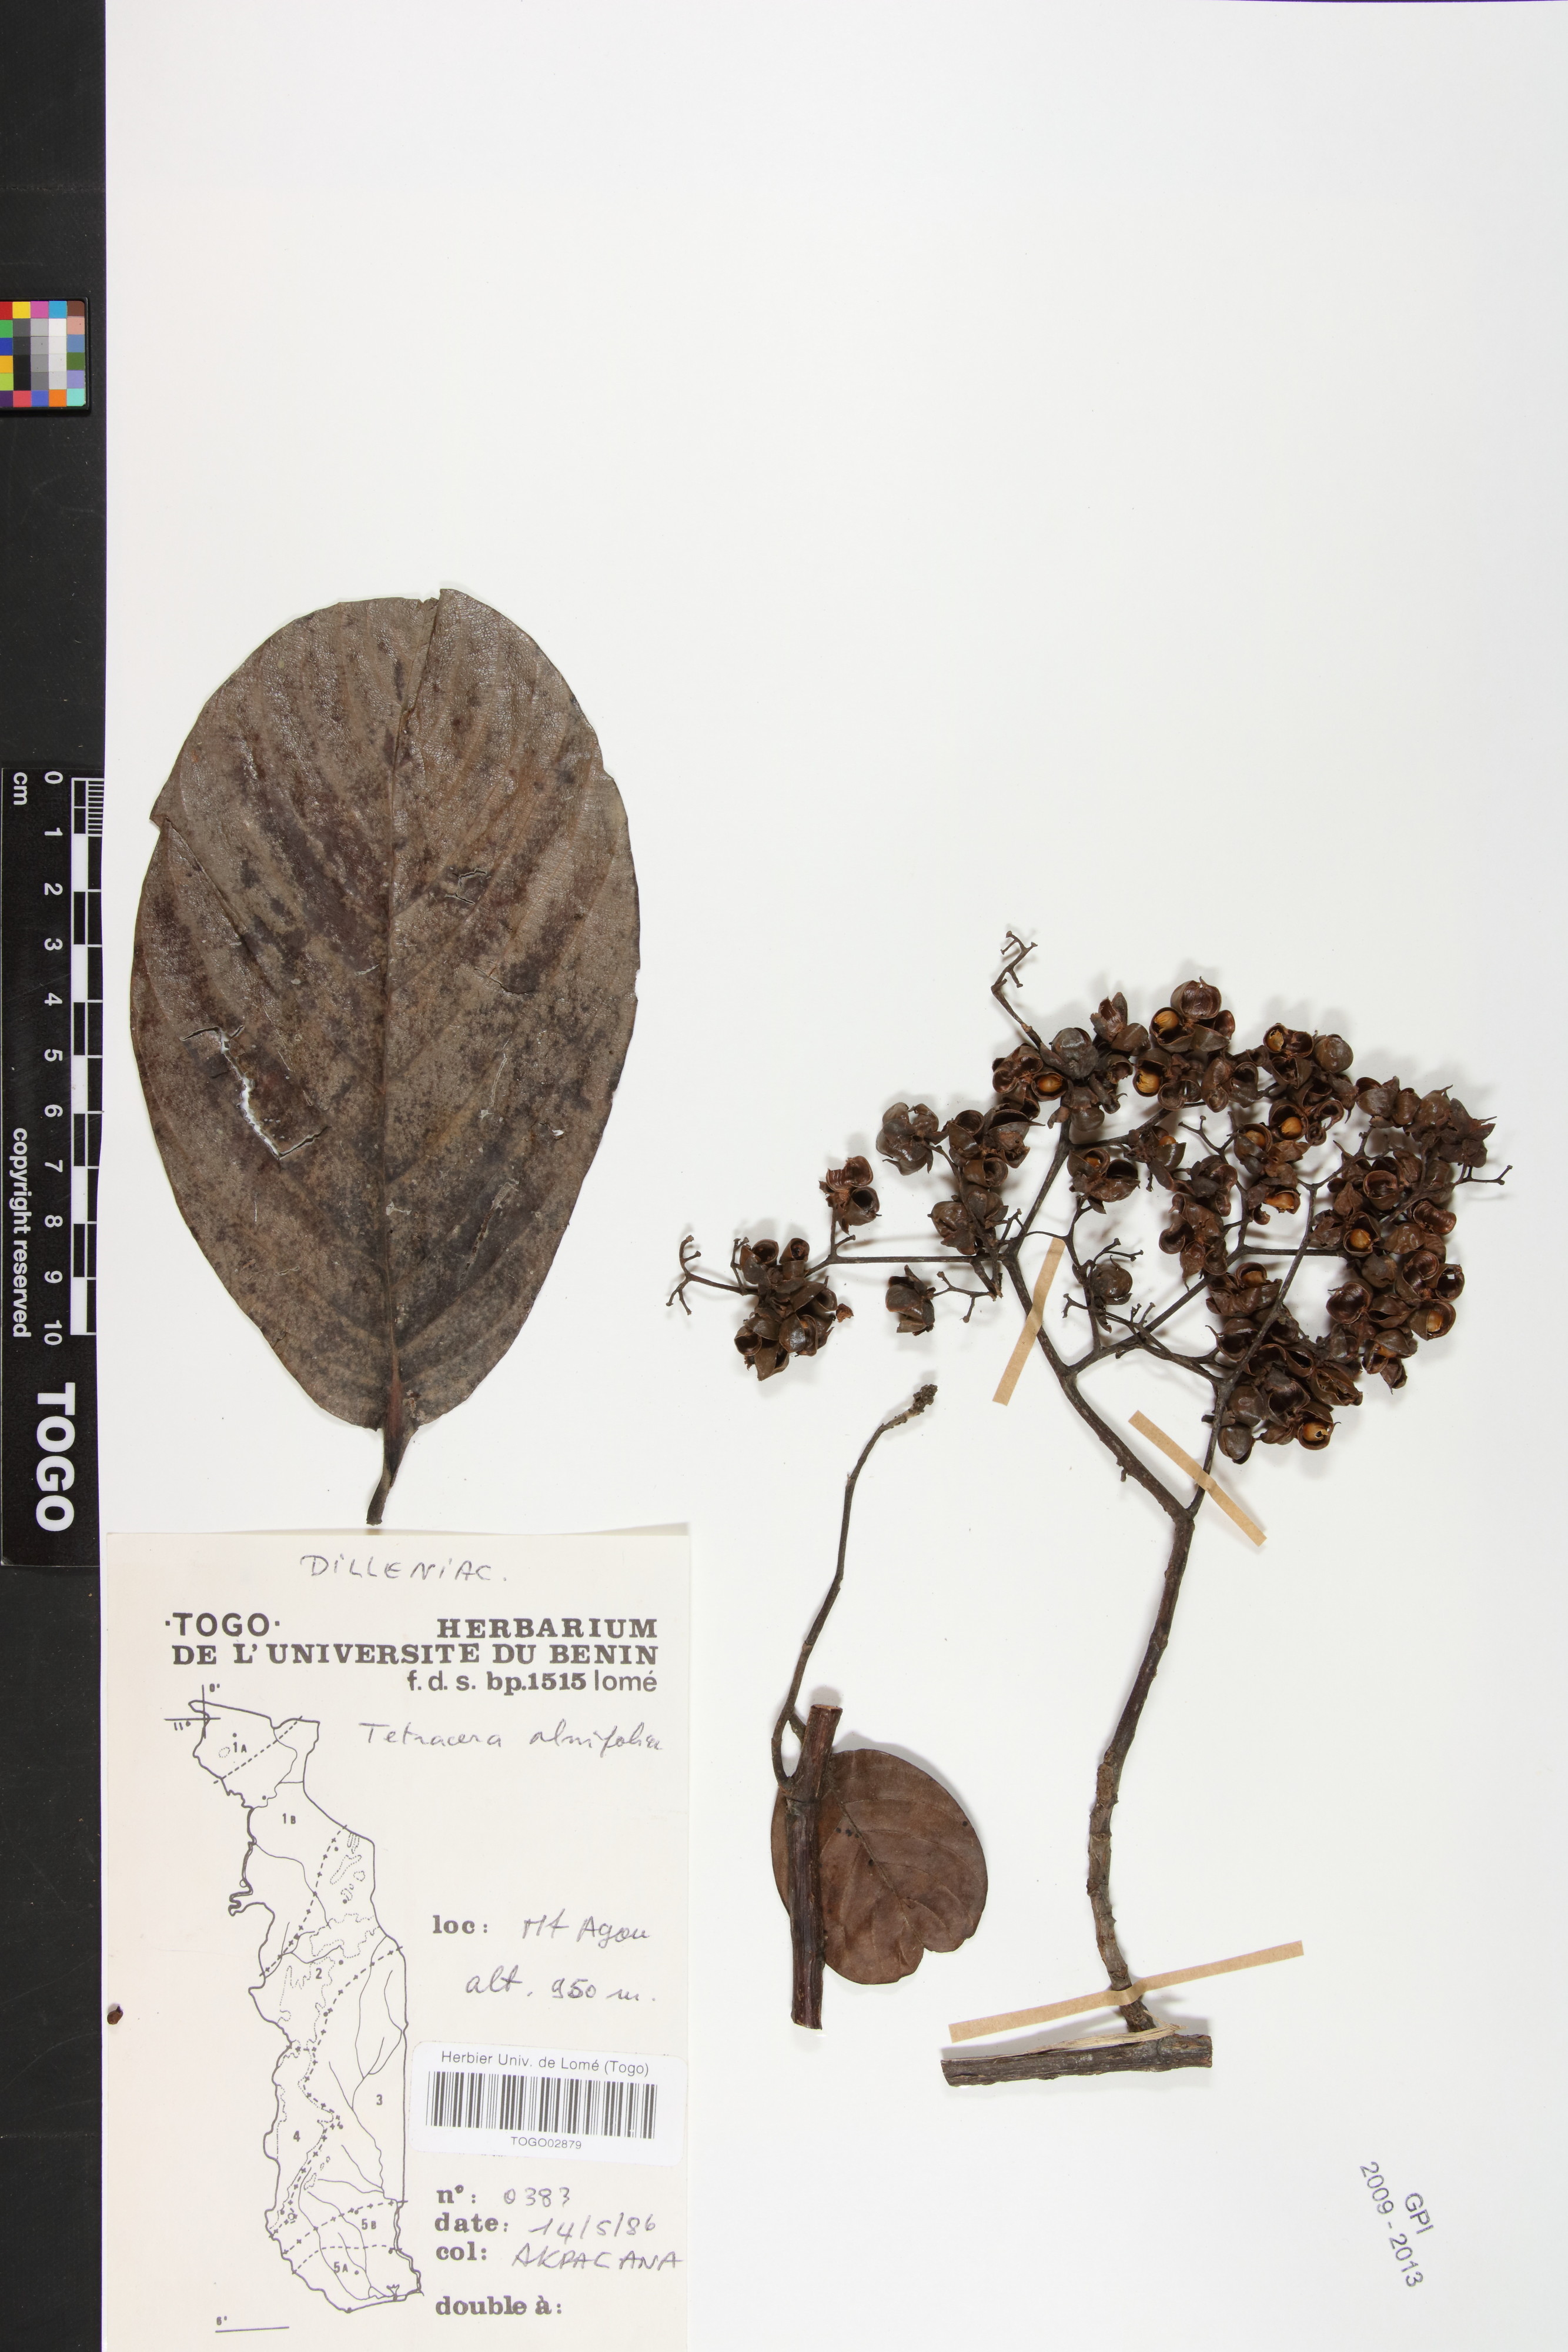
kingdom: Plantae
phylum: Tracheophyta
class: Magnoliopsida
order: Dilleniales
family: Dilleniaceae
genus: Tetracera
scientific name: Tetracera alnifolia
